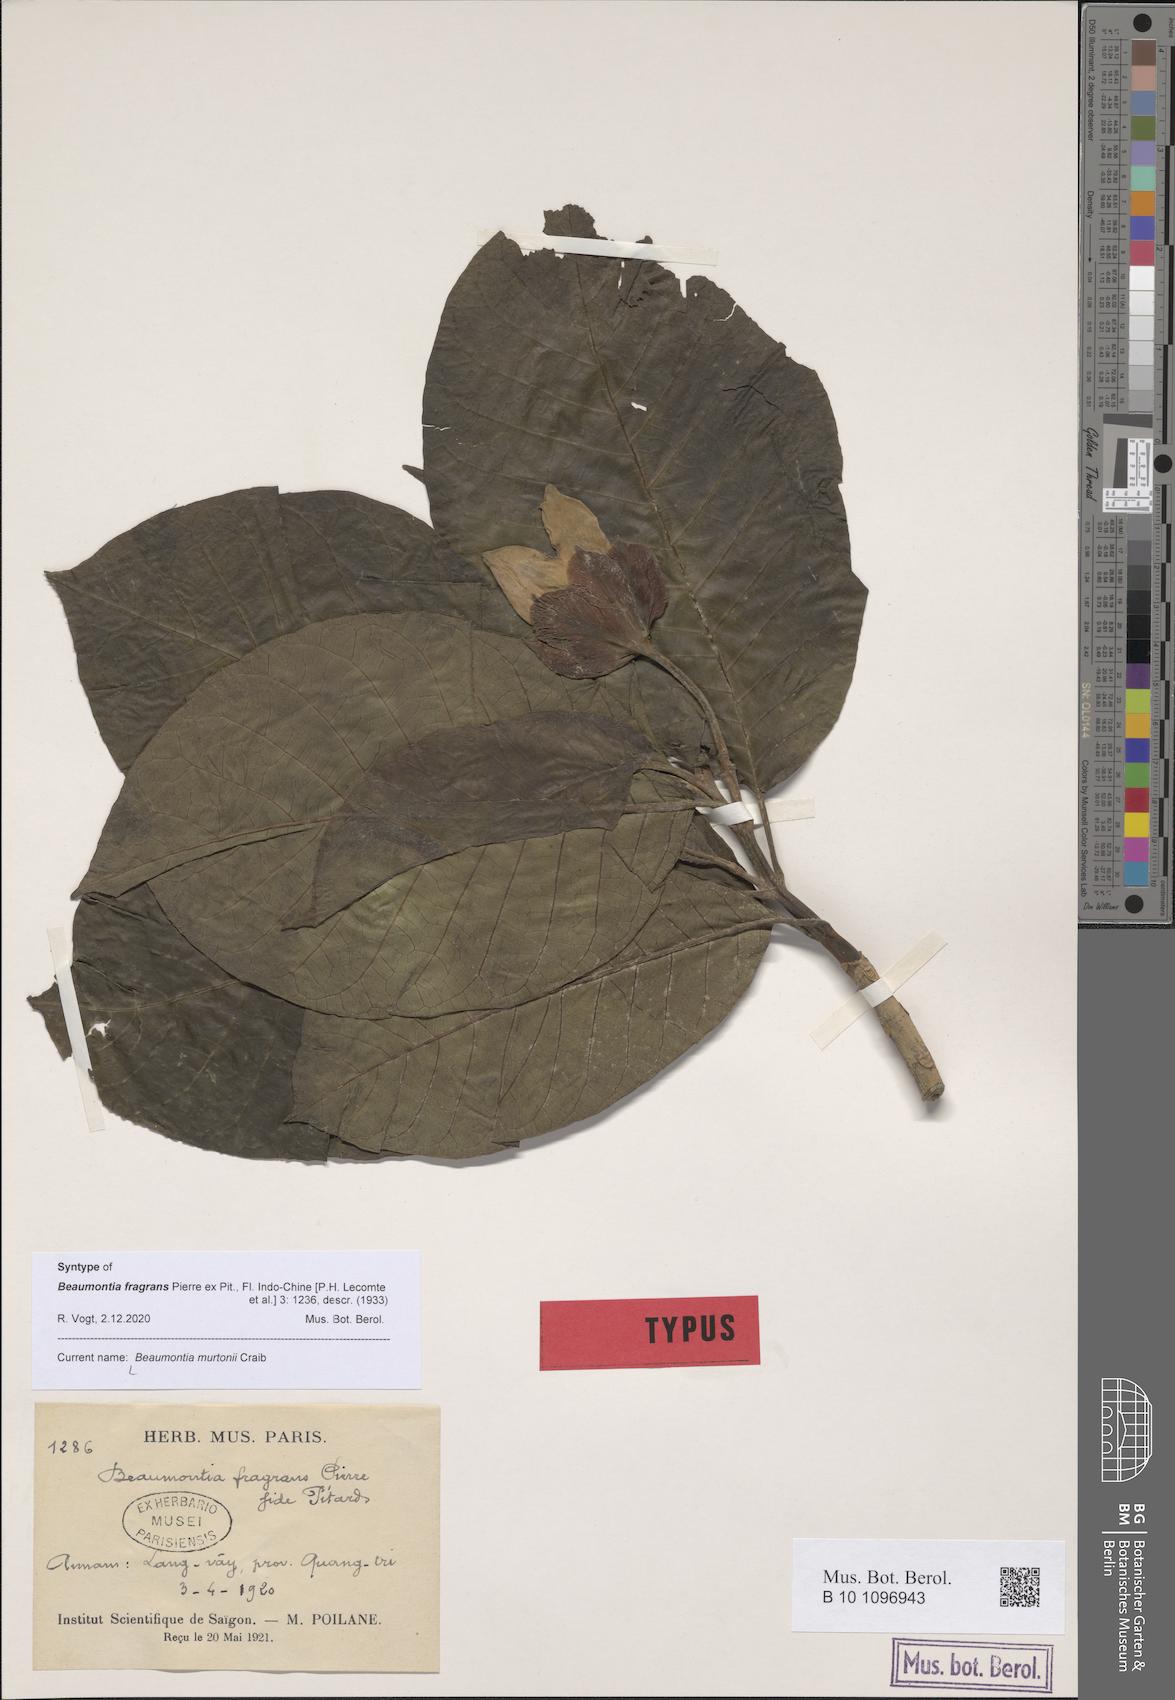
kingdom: Plantae
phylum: Tracheophyta
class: Magnoliopsida
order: Gentianales
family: Apocynaceae
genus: Beaumontia
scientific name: Beaumontia murtonii
